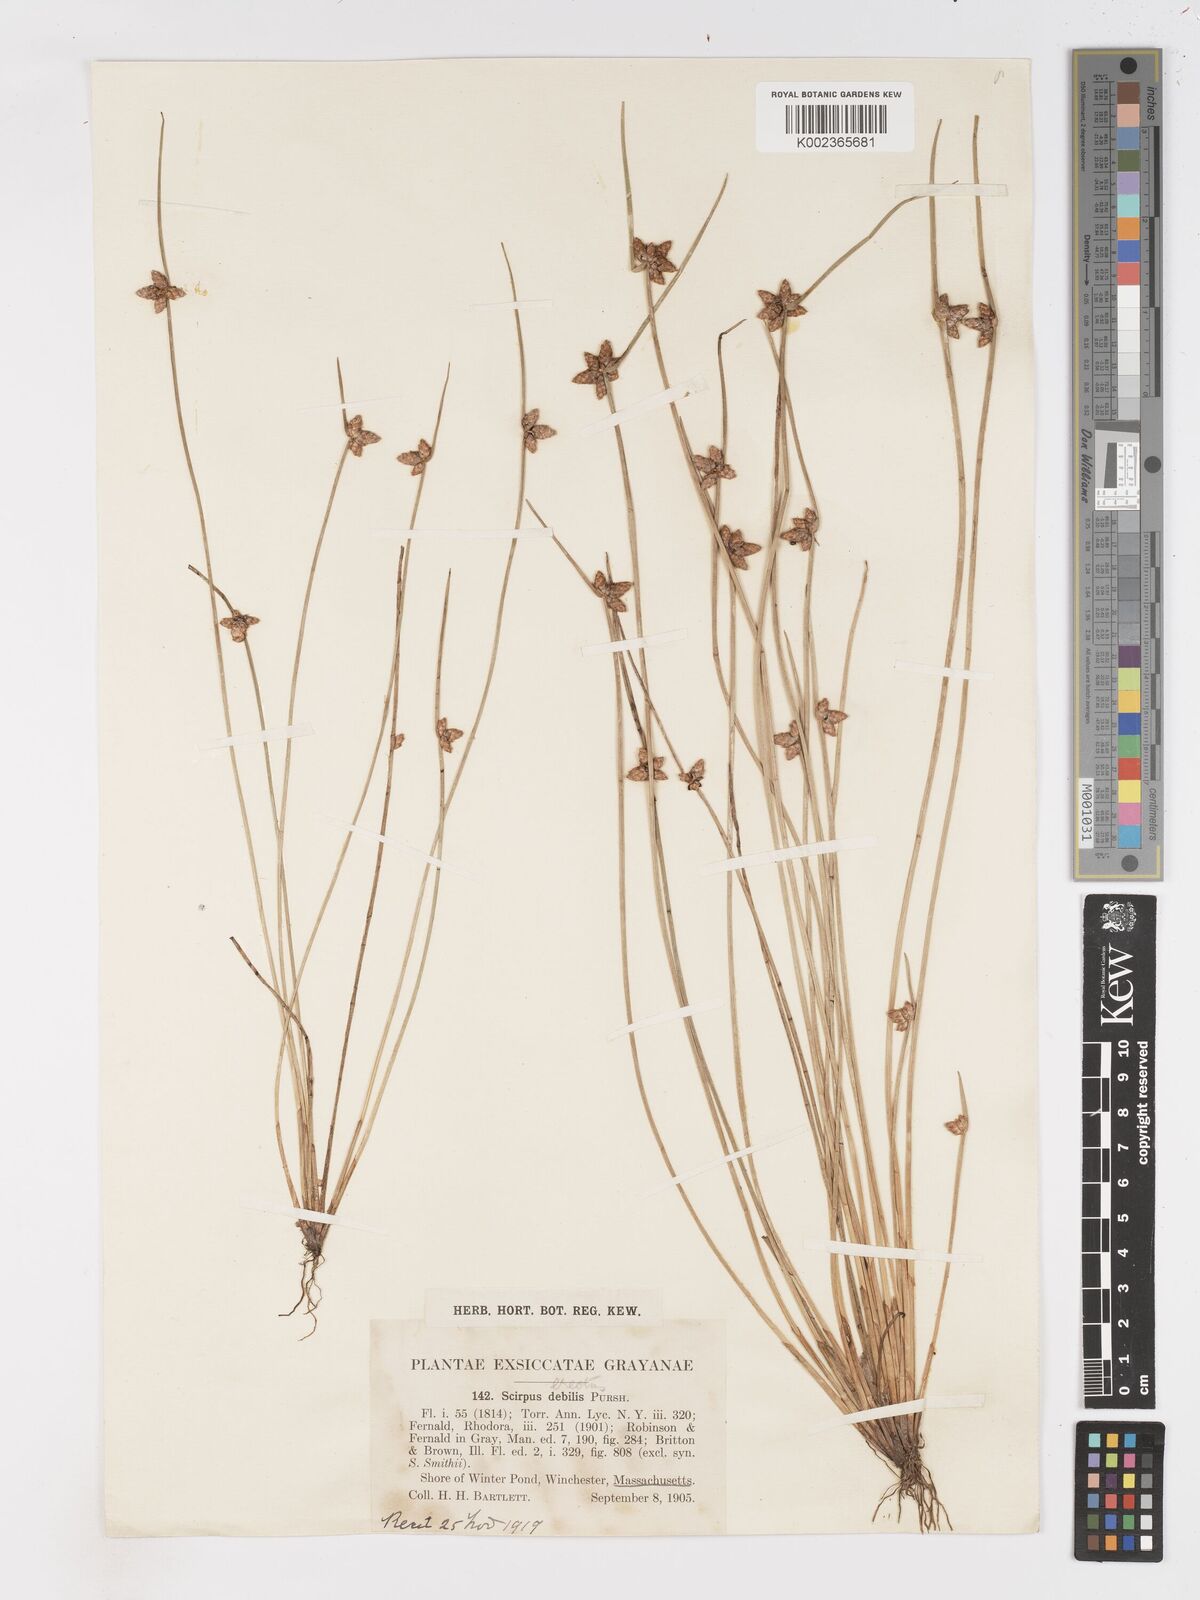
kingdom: Plantae
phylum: Tracheophyta
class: Liliopsida
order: Poales
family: Cyperaceae
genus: Schoenoplectiella
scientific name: Schoenoplectiella purshiana
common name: Weak-stalked bulrush
